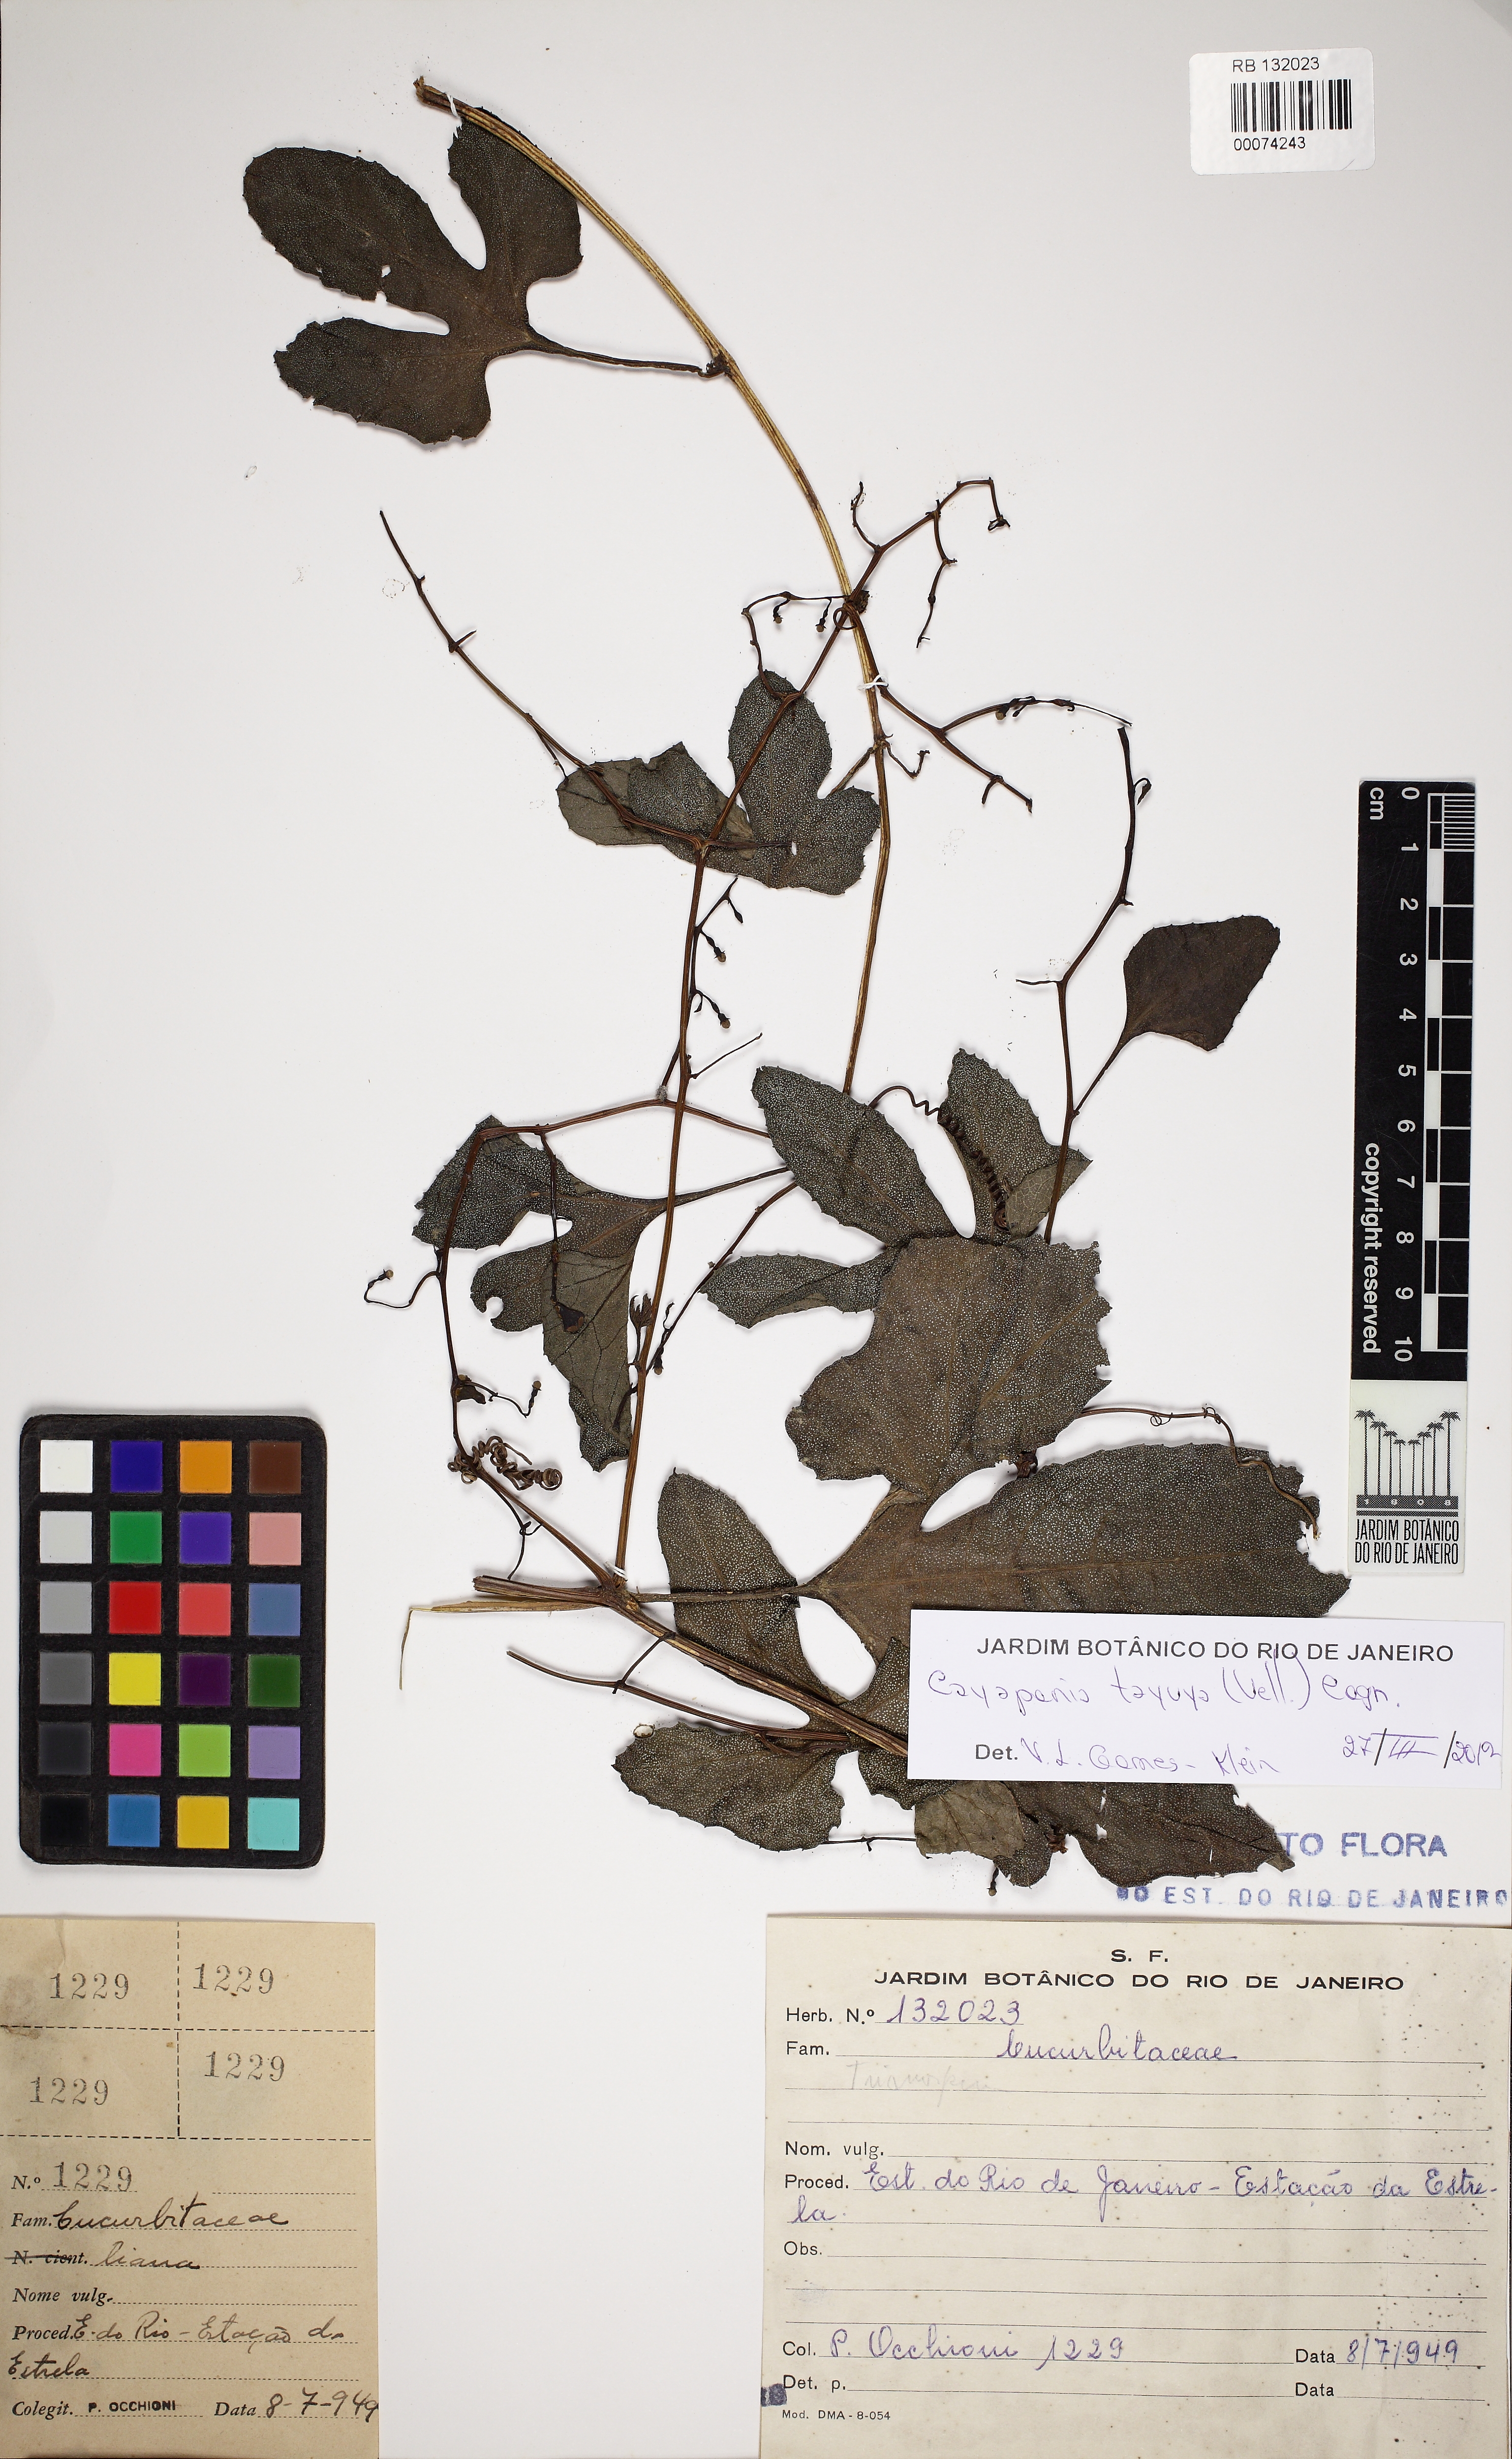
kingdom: Plantae
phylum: Tracheophyta
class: Magnoliopsida
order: Cucurbitales
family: Cucurbitaceae
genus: Cayaponia
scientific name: Cayaponia tayuya
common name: Tayuya
